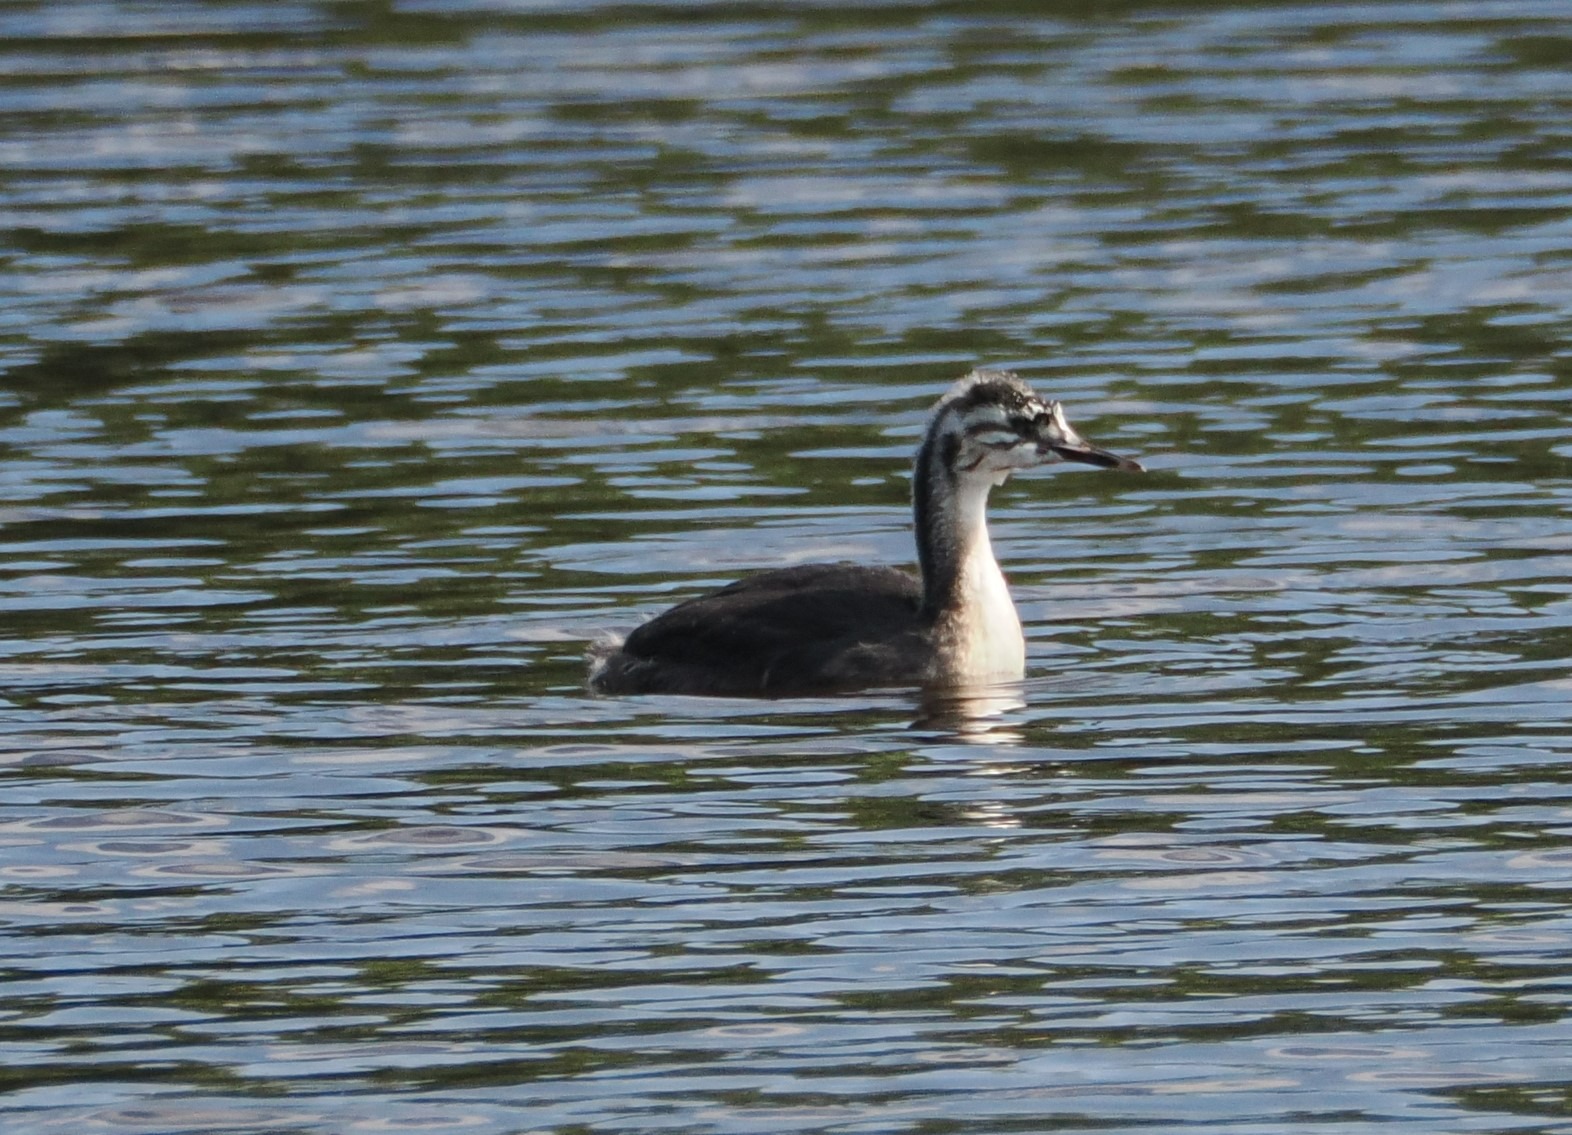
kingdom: Animalia
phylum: Chordata
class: Aves
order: Podicipediformes
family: Podicipedidae
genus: Podiceps
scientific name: Podiceps cristatus
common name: Toppet lappedykker
